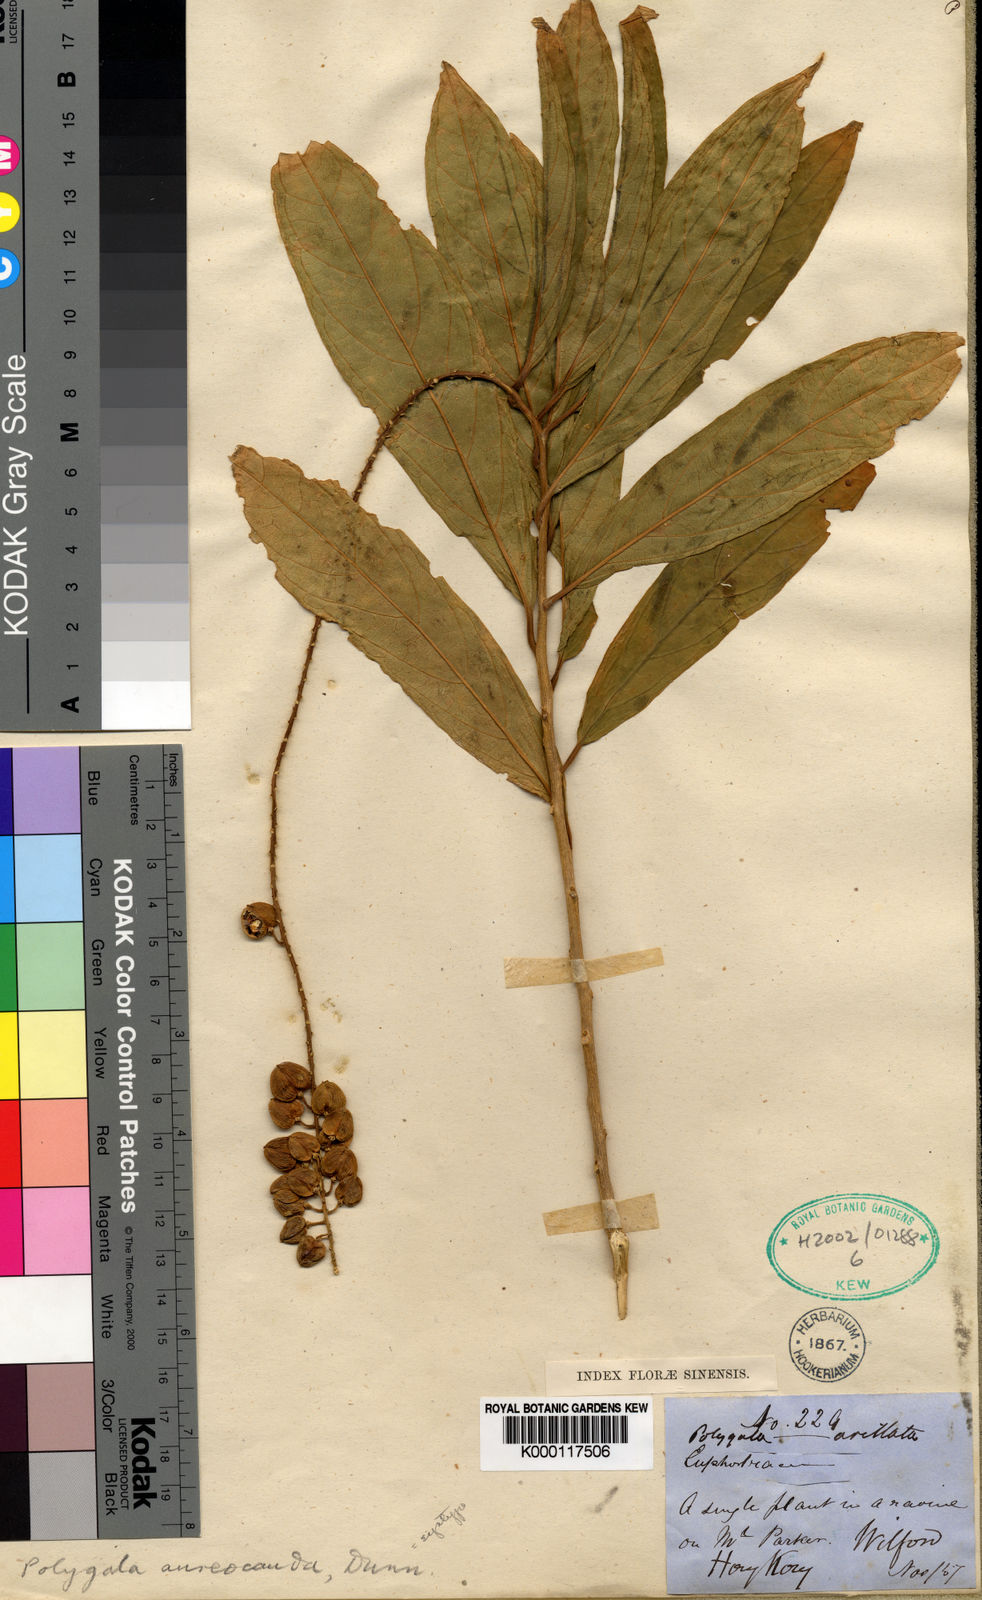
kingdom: Plantae
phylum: Tracheophyta
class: Magnoliopsida
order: Fabales
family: Polygalaceae
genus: Polygala
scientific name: Polygala forbesii
